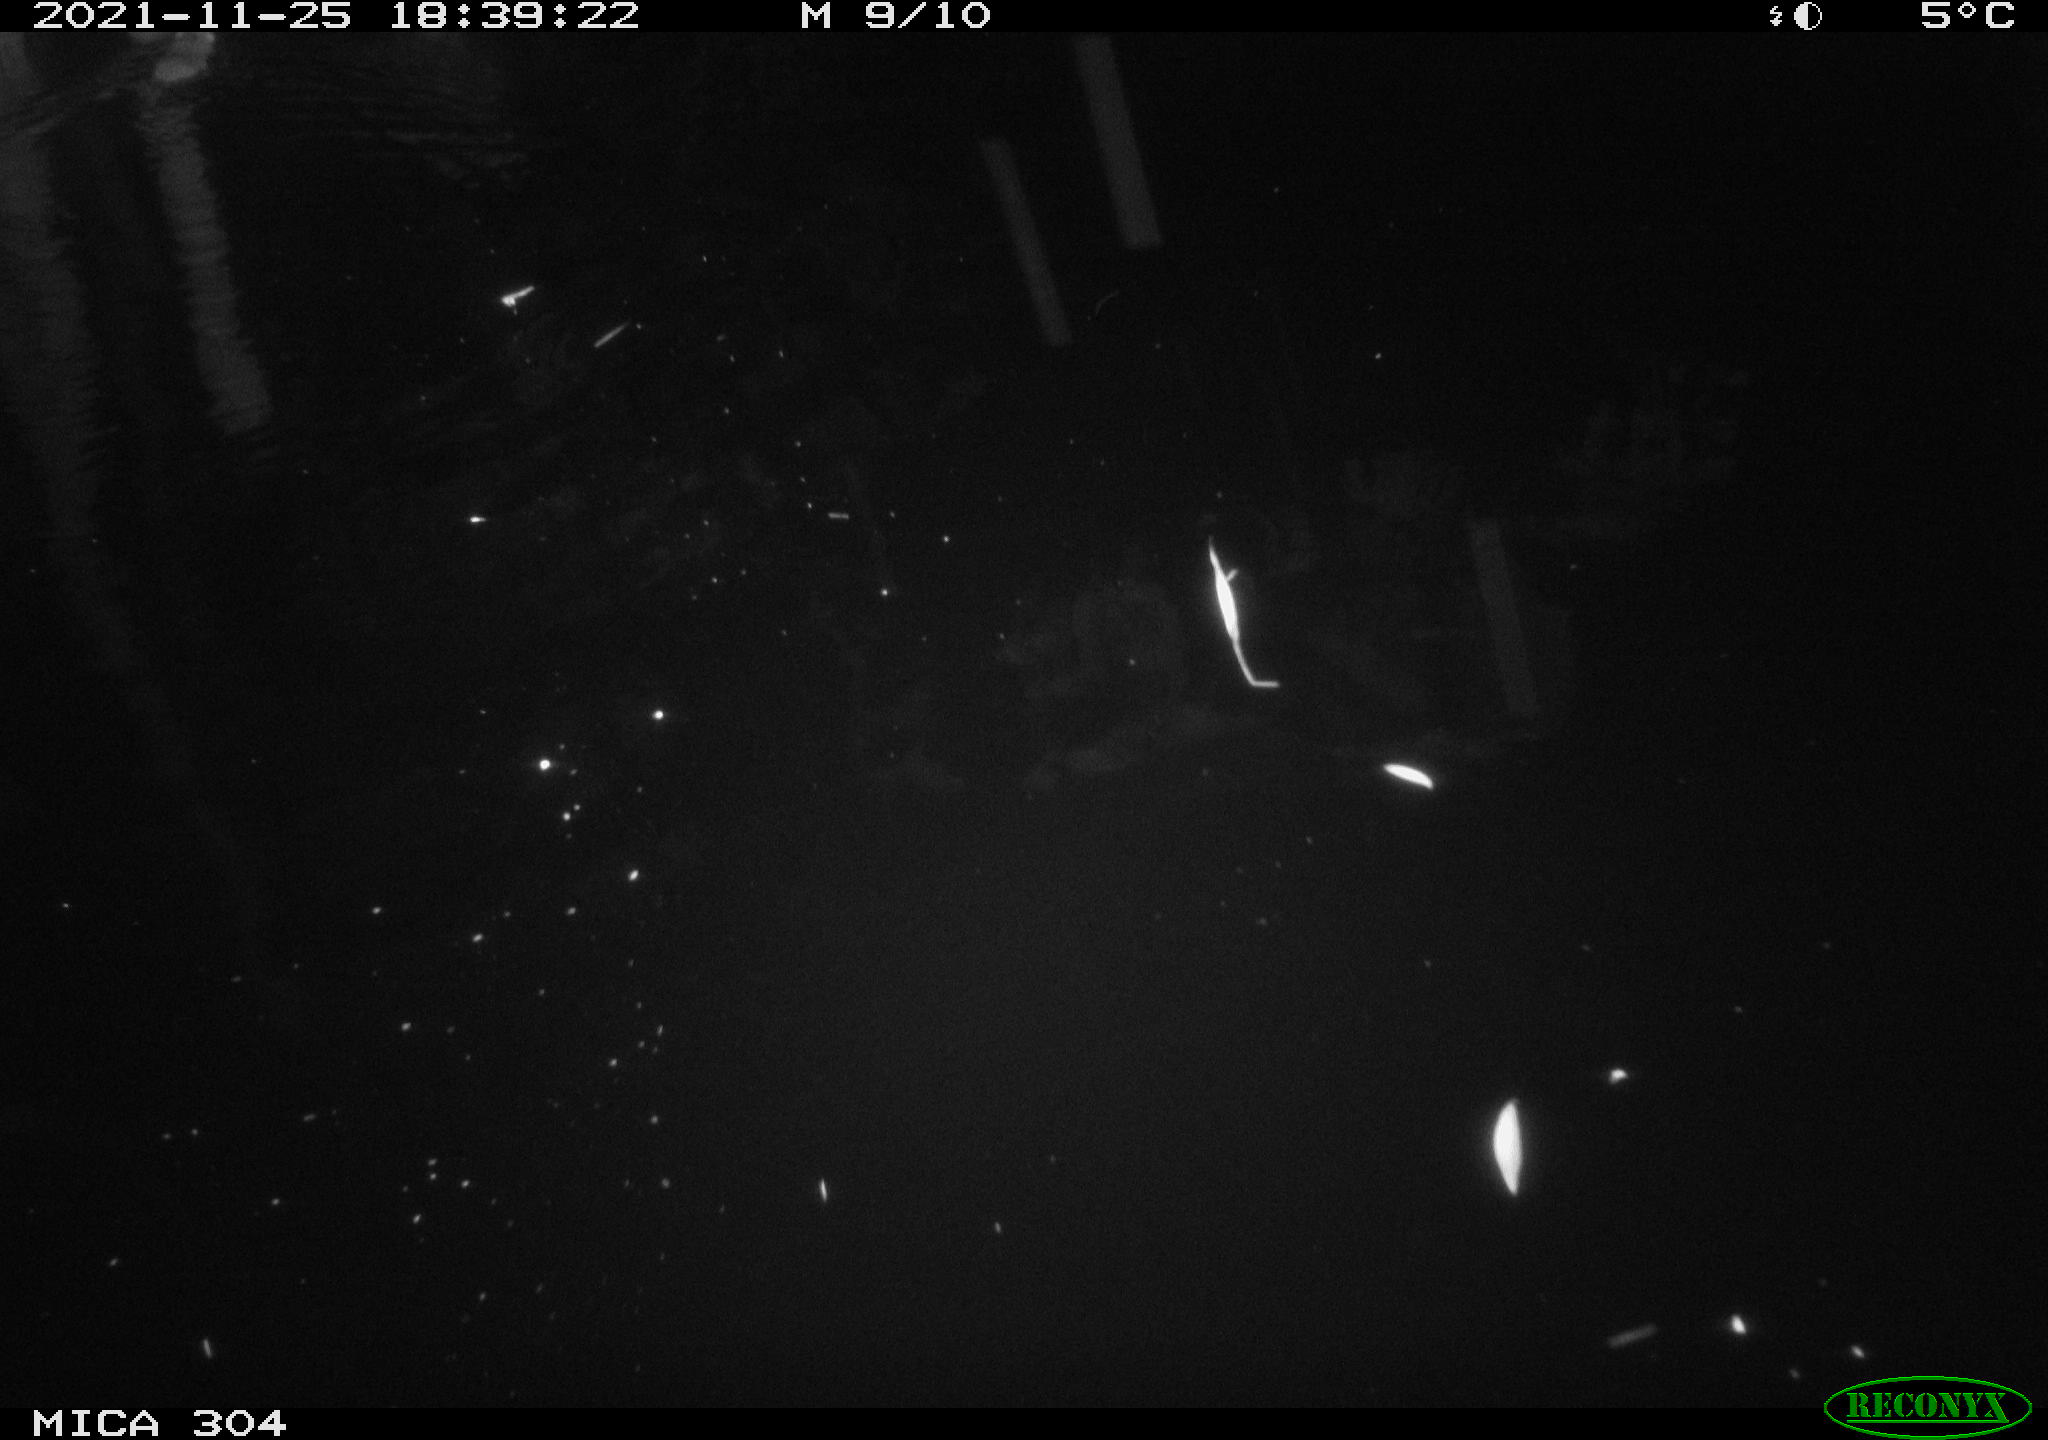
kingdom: Animalia
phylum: Chordata
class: Mammalia
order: Rodentia
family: Muridae
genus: Rattus
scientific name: Rattus norvegicus
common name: Brown rat
